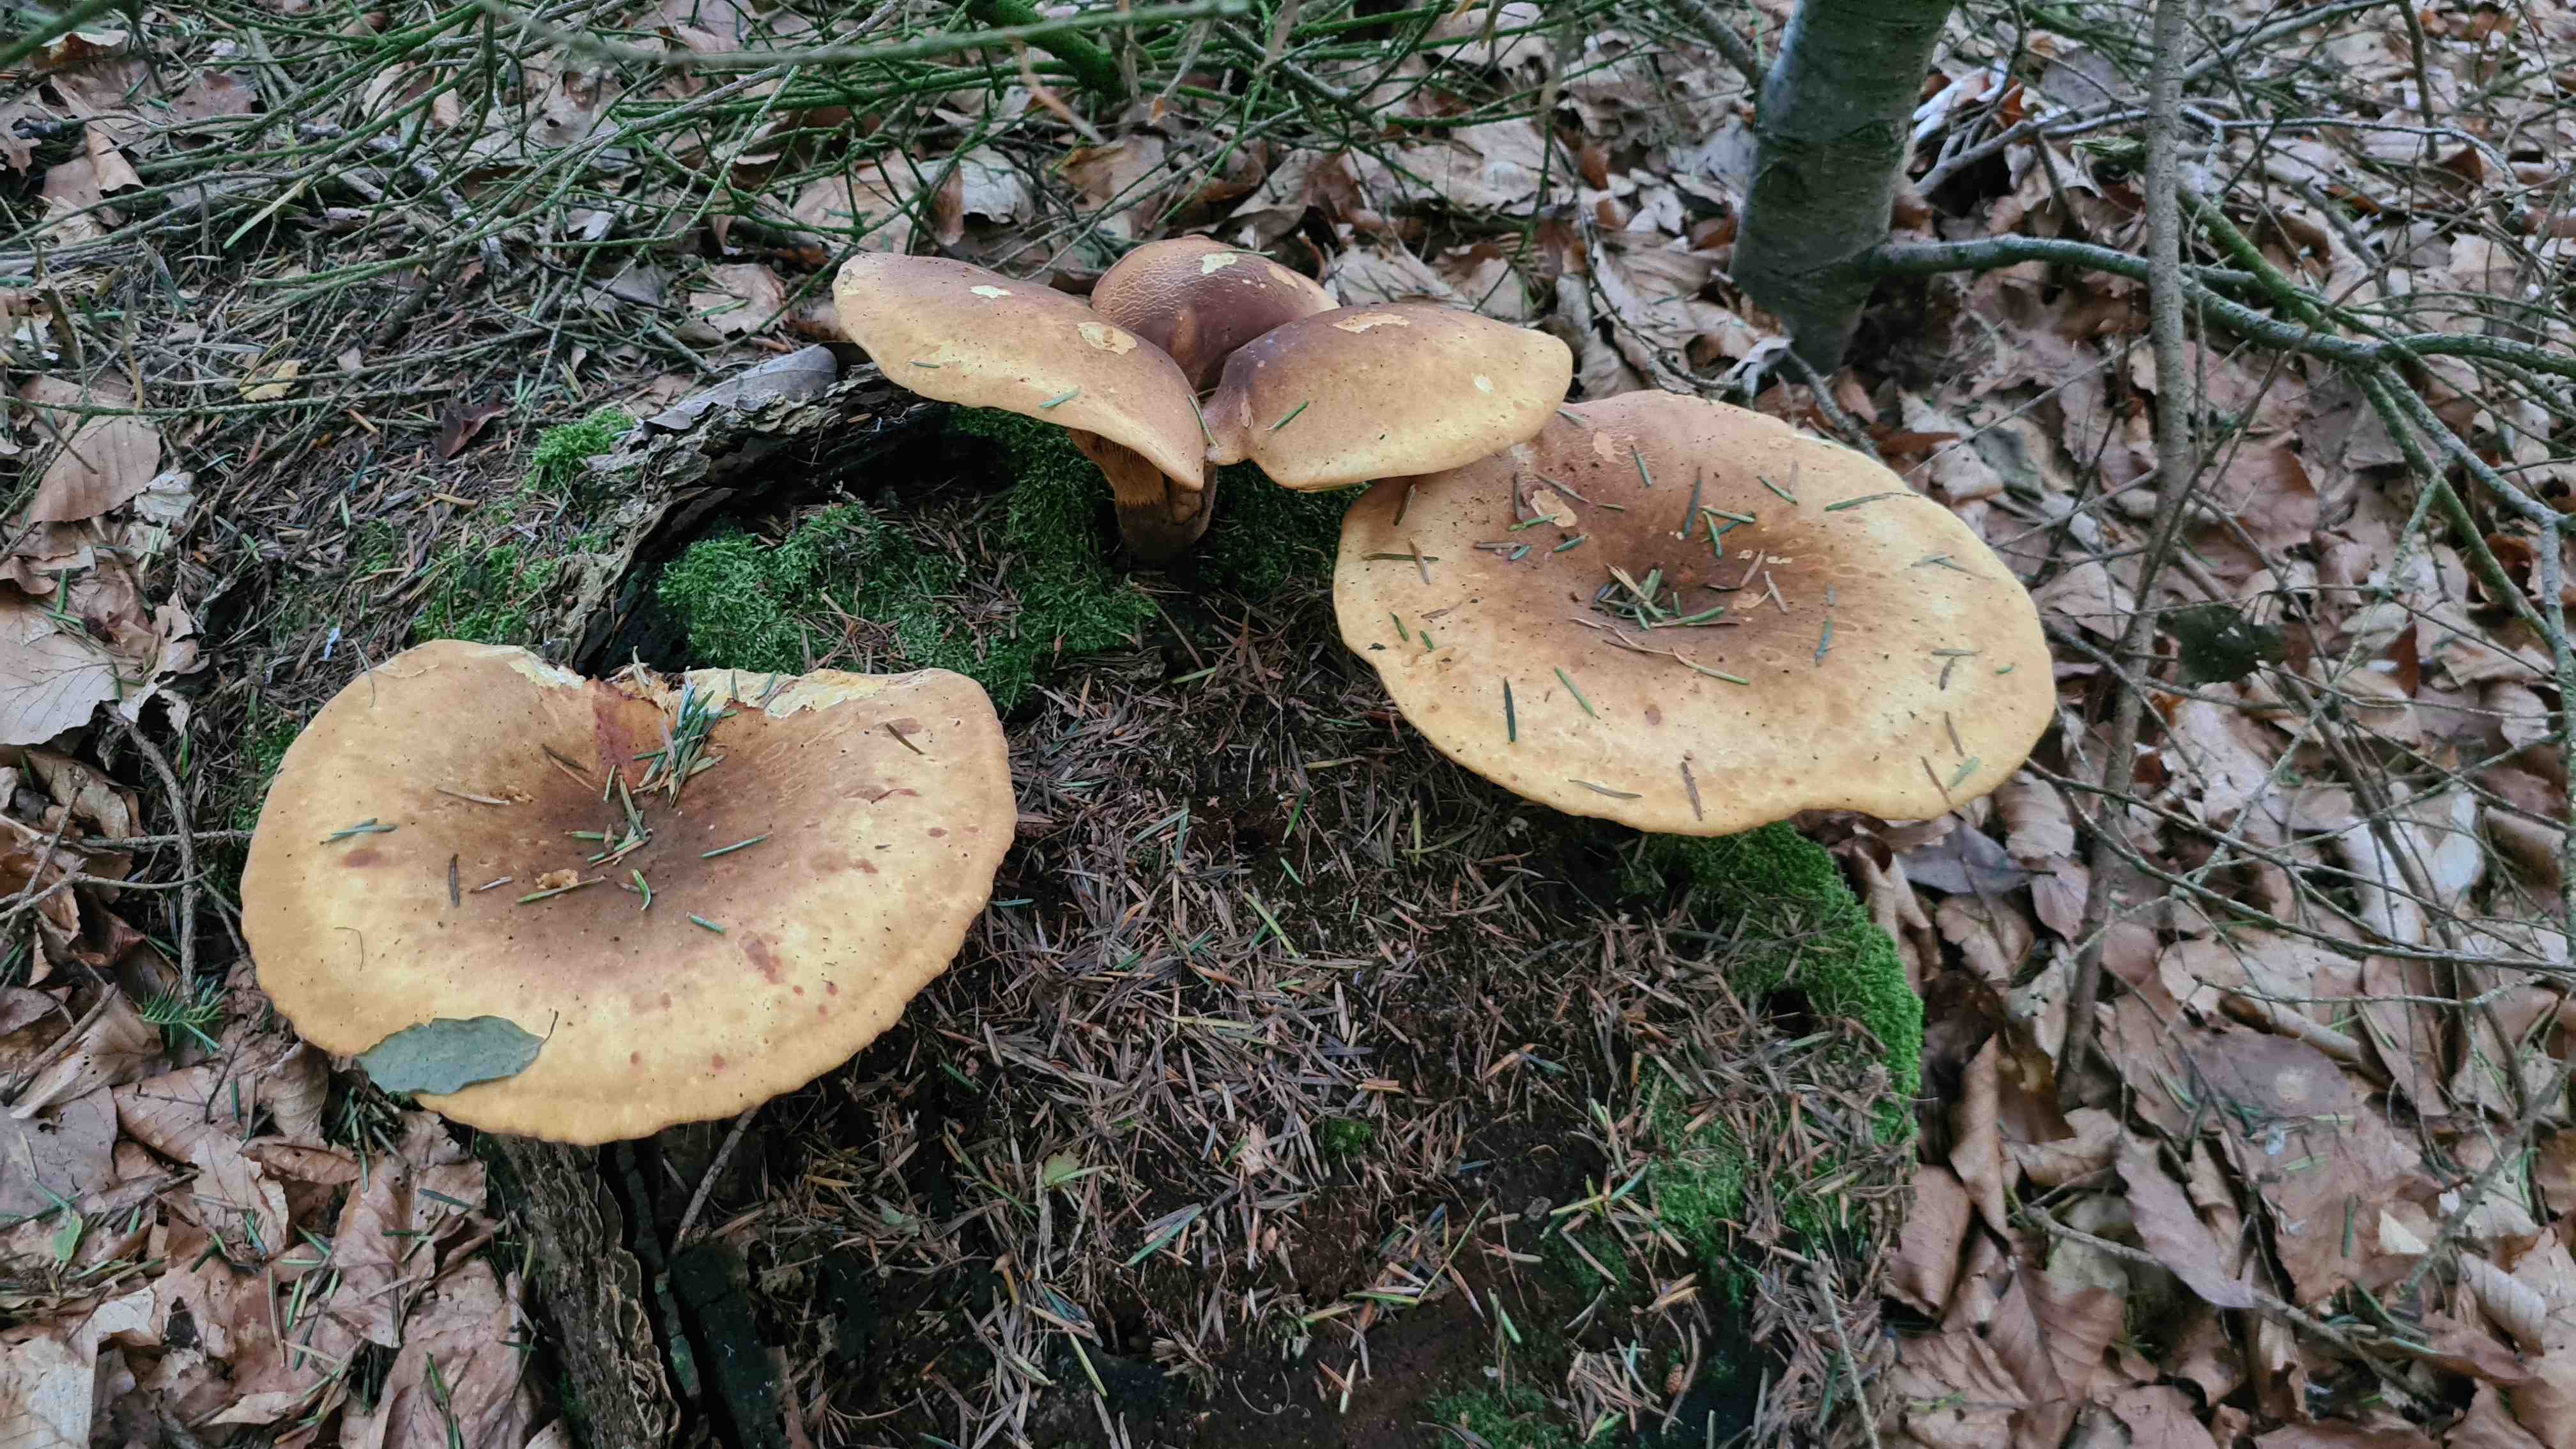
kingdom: Fungi
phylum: Basidiomycota
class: Agaricomycetes
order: Boletales
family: Tapinellaceae
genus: Tapinella
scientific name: Tapinella atrotomentosa
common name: sortfiltet viftesvamp
